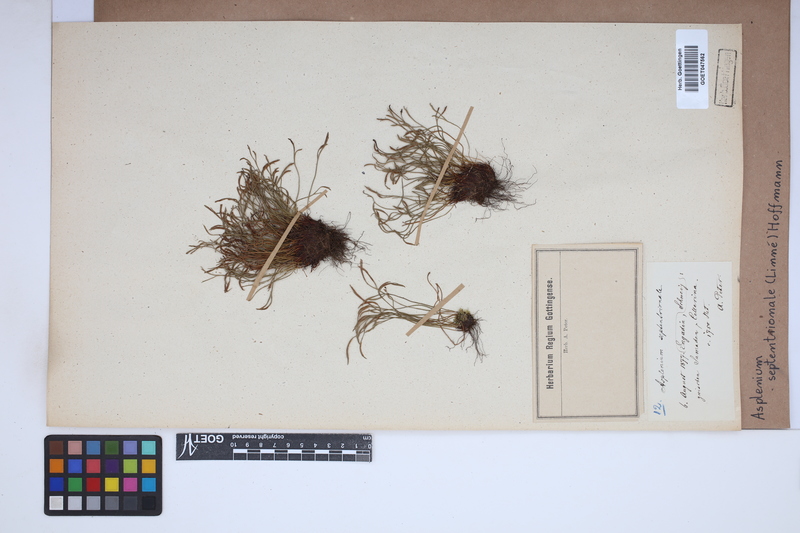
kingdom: Plantae
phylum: Tracheophyta
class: Polypodiopsida
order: Polypodiales
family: Aspleniaceae
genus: Asplenium
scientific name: Asplenium septentrionale
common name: Forked spleenwort
